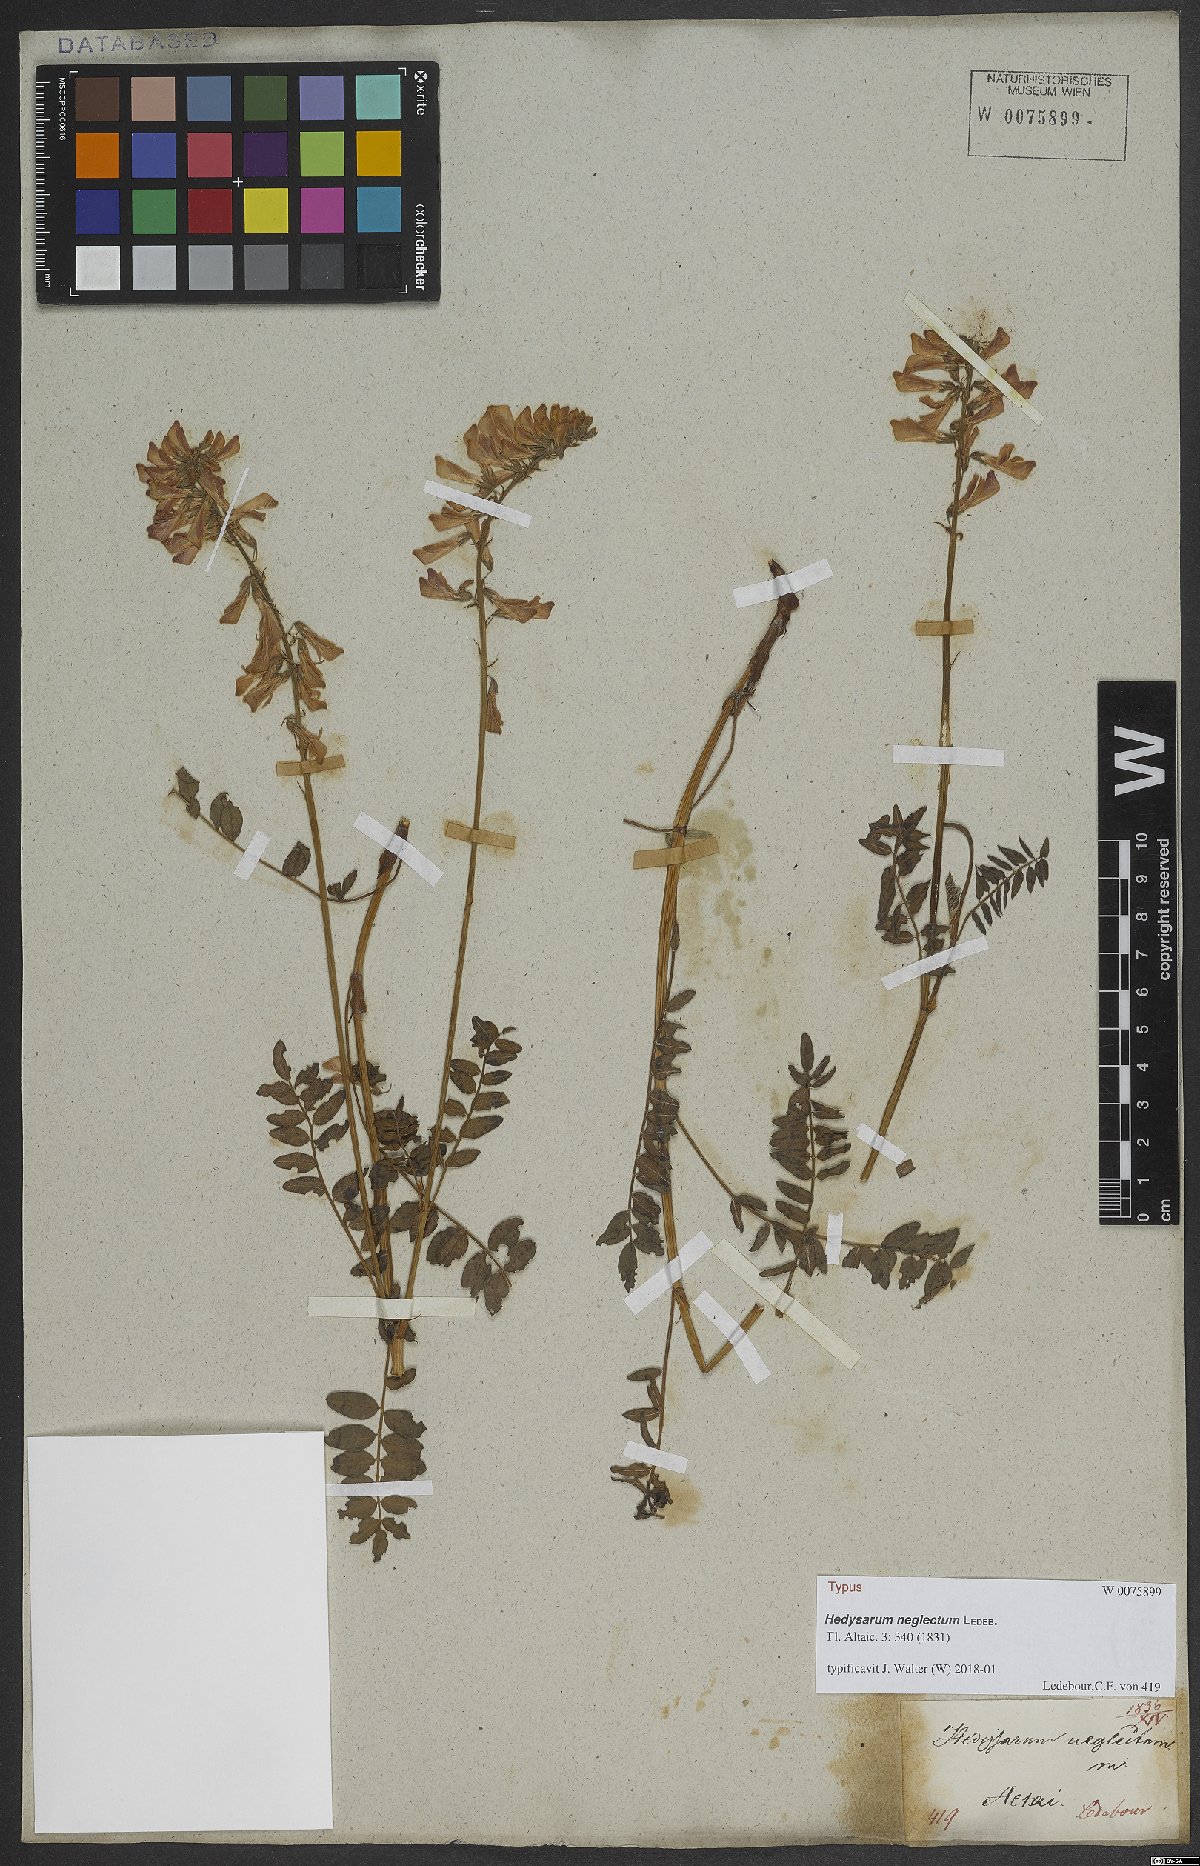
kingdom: Plantae
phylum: Tracheophyta
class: Magnoliopsida
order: Fabales
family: Fabaceae
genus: Hedysarum
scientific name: Hedysarum neglectum
